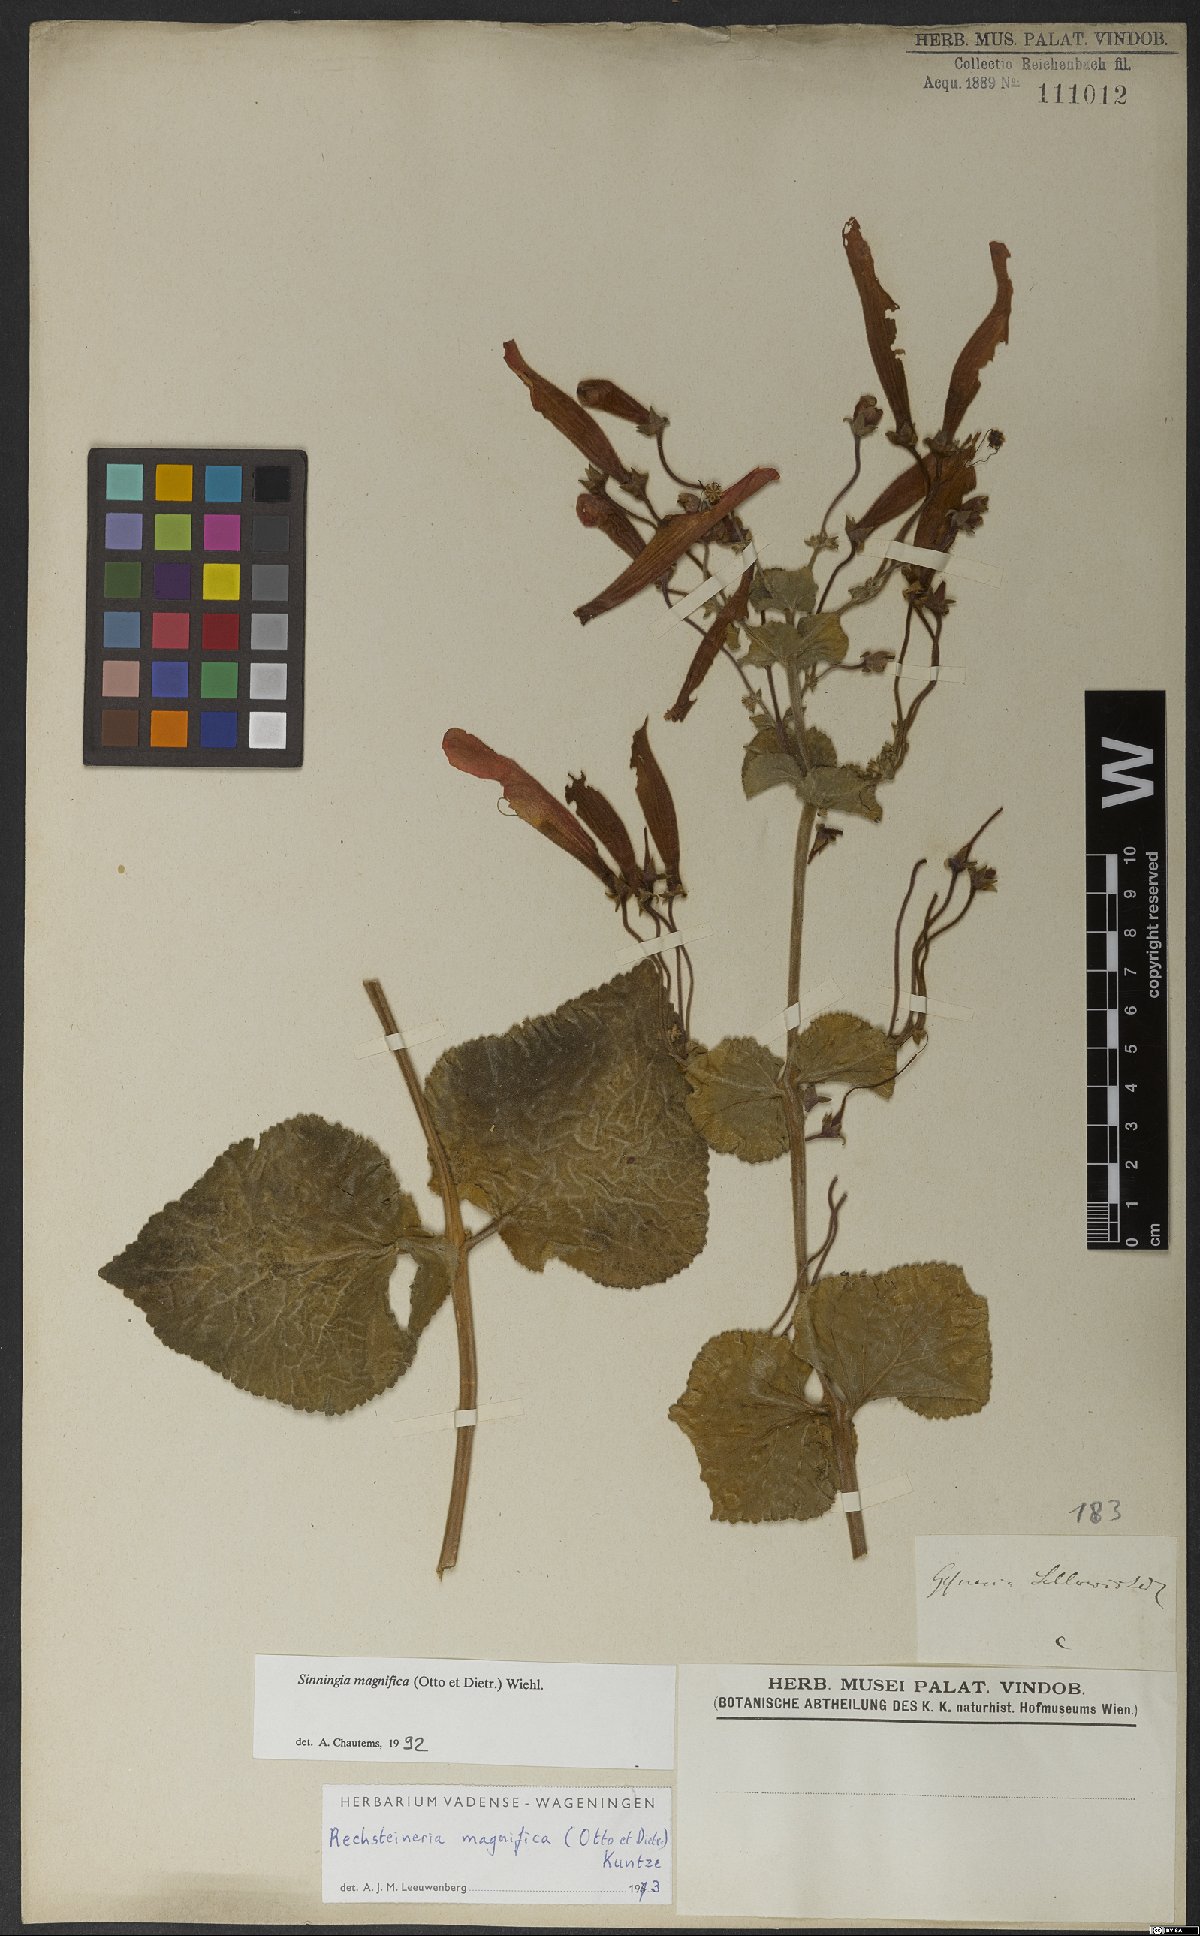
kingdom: Plantae
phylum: Tracheophyta
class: Magnoliopsida
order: Lamiales
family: Gesneriaceae
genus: Sinningia
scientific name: Sinningia magnifica
